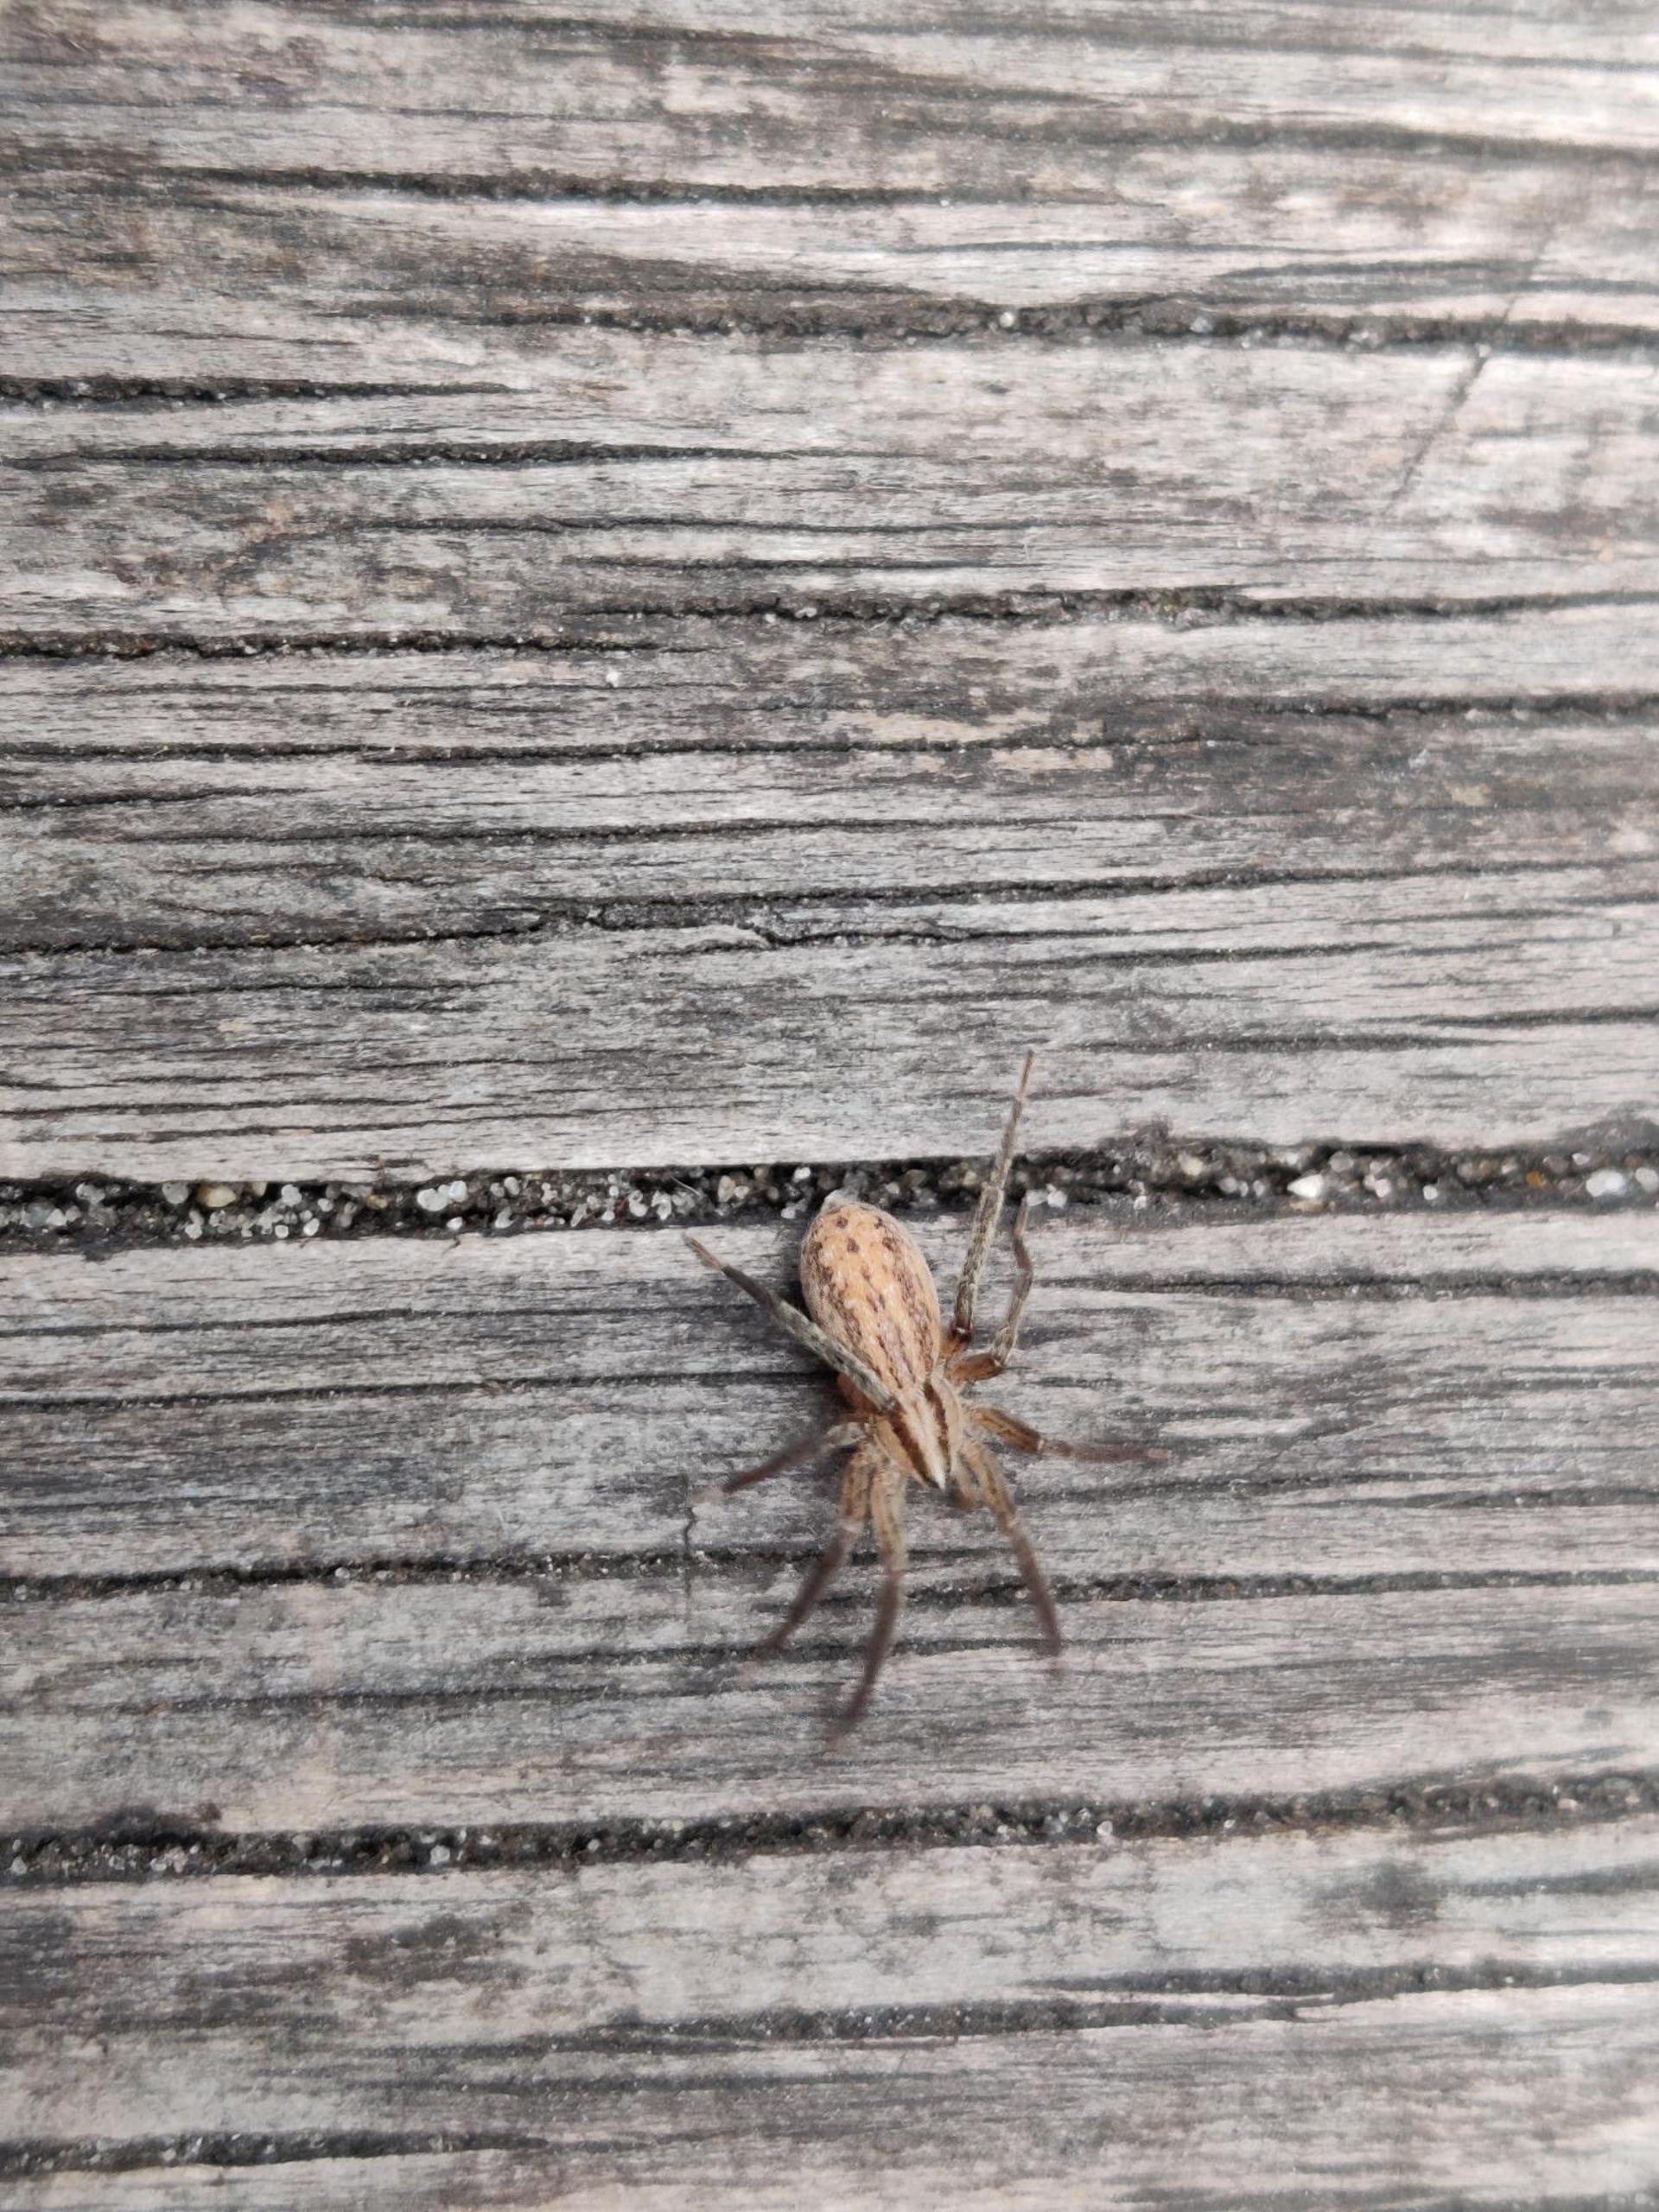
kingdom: Animalia
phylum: Arthropoda
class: Arachnida
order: Araneae
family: Miturgidae
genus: Zora
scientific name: Zora spinimana
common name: Katteedderkop
